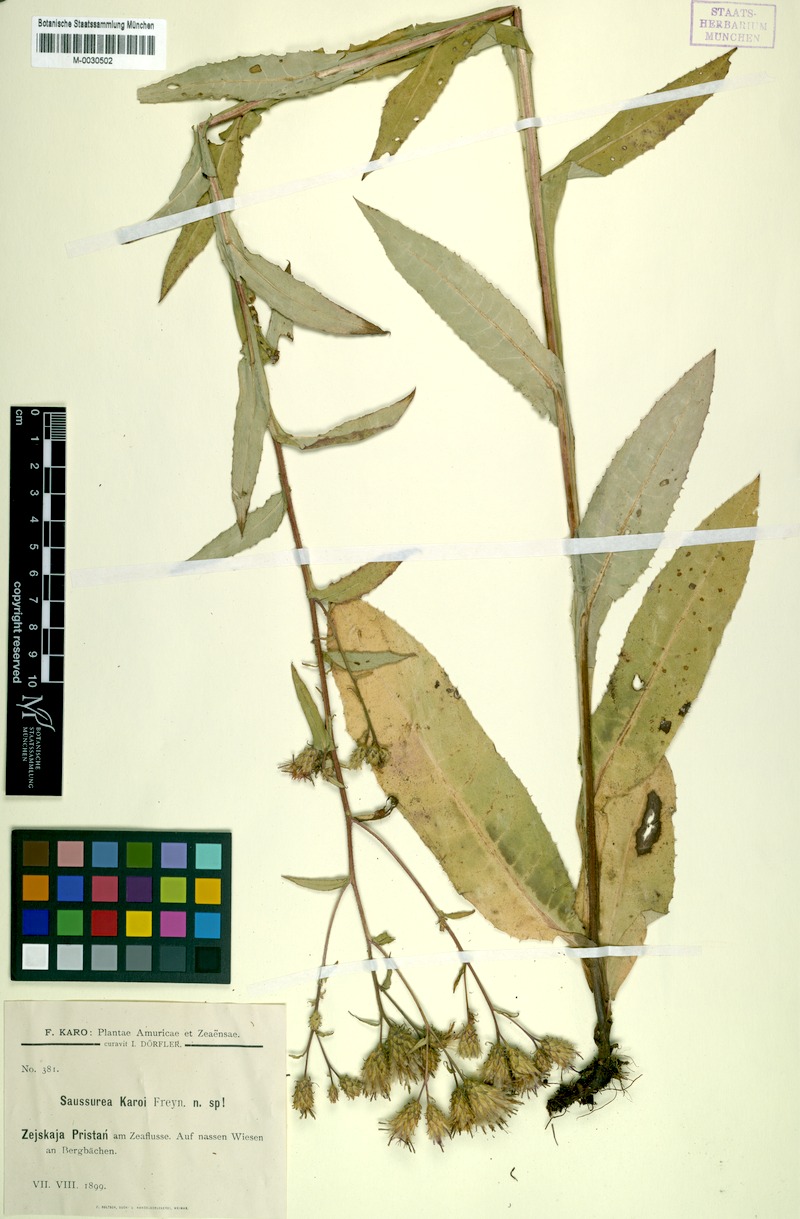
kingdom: Plantae
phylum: Tracheophyta
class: Magnoliopsida
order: Asterales
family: Asteraceae
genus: Saussurea
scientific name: Saussurea umbrosa
